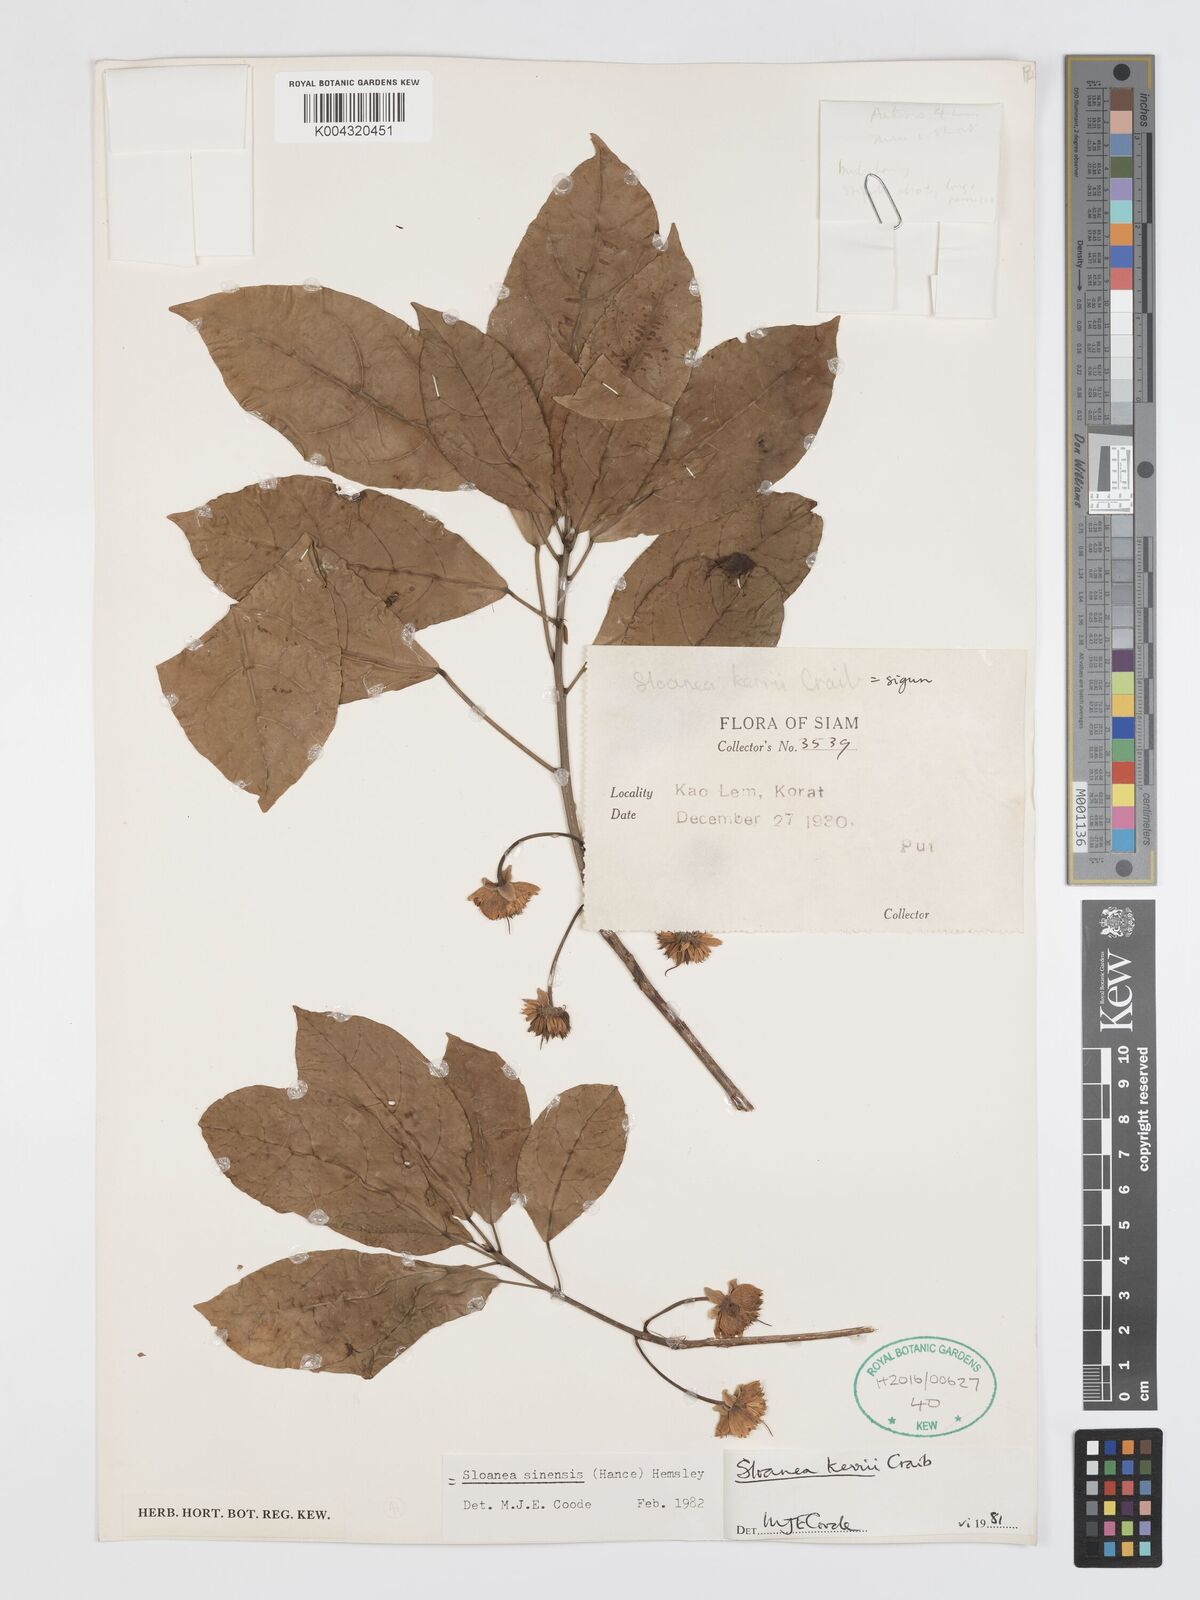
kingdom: Plantae
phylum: Tracheophyta
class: Magnoliopsida
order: Oxalidales
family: Elaeocarpaceae
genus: Sloanea
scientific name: Sloanea sinensis
